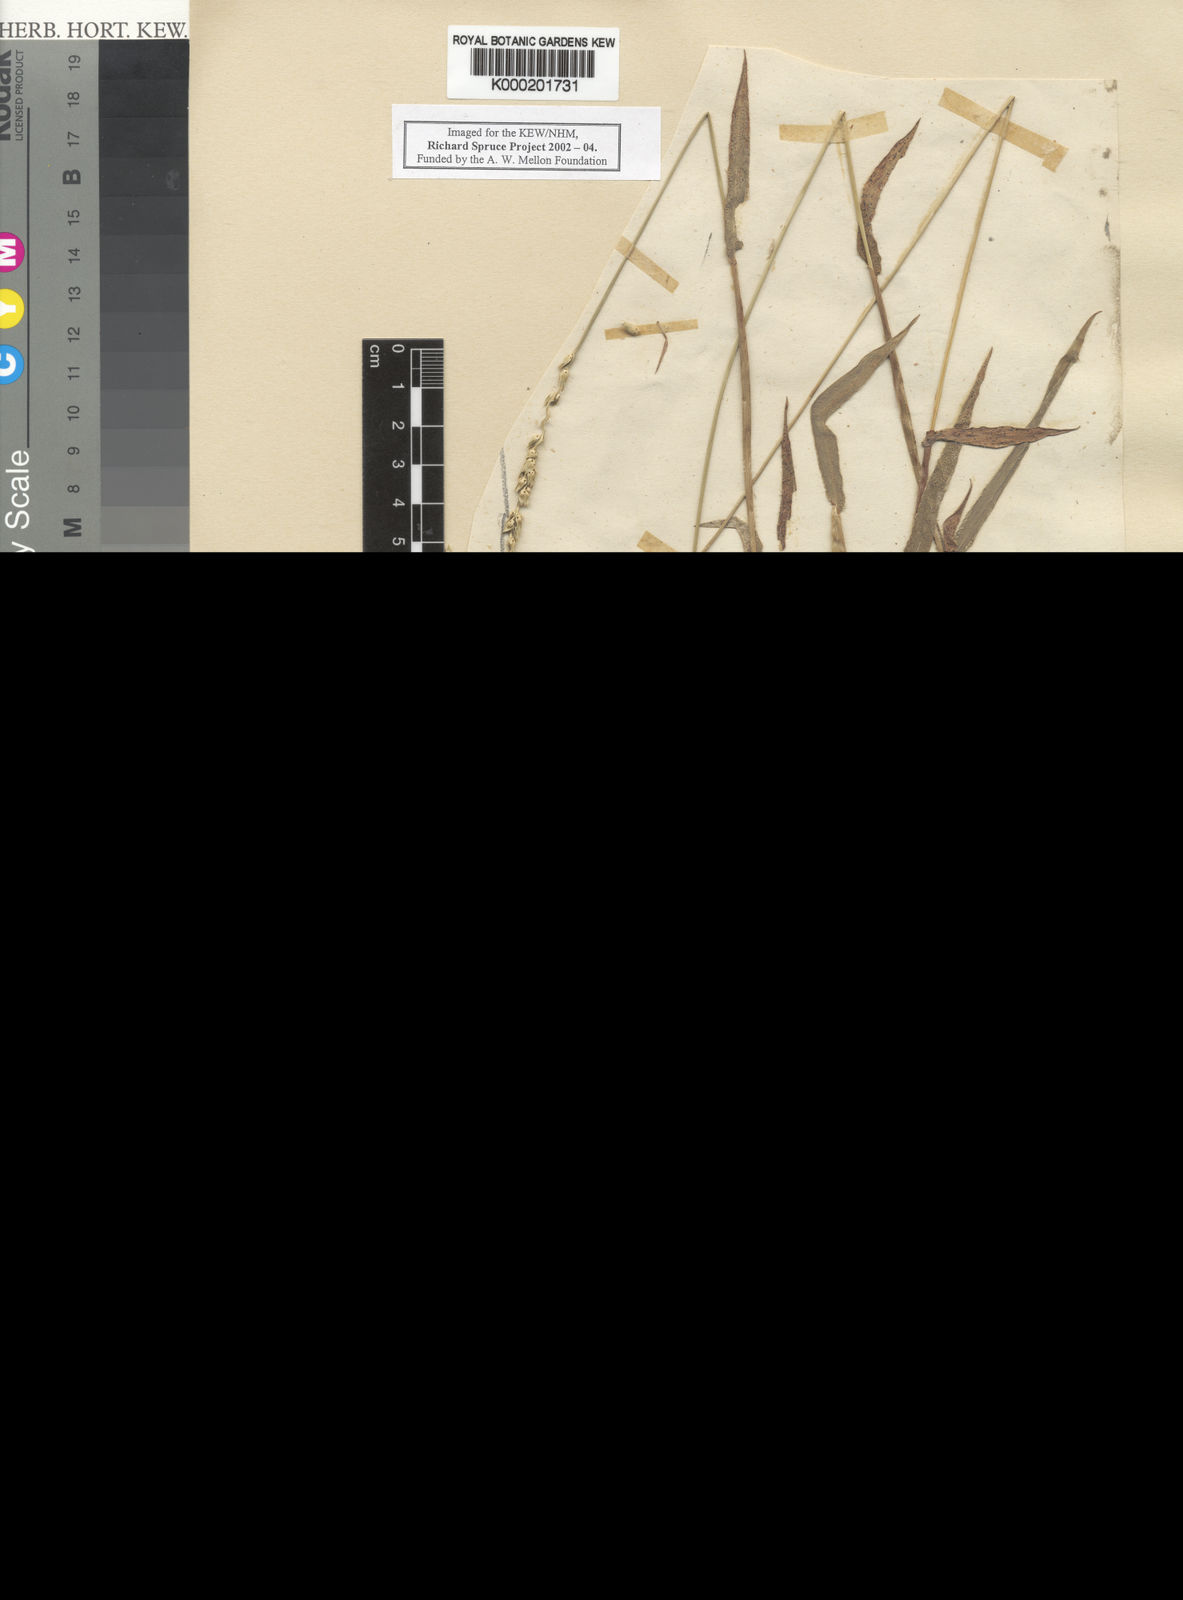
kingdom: Plantae
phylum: Tracheophyta
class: Liliopsida
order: Poales
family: Poaceae
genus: Anthephora
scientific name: Anthephora hermaphrodita
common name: Oldfield grass
